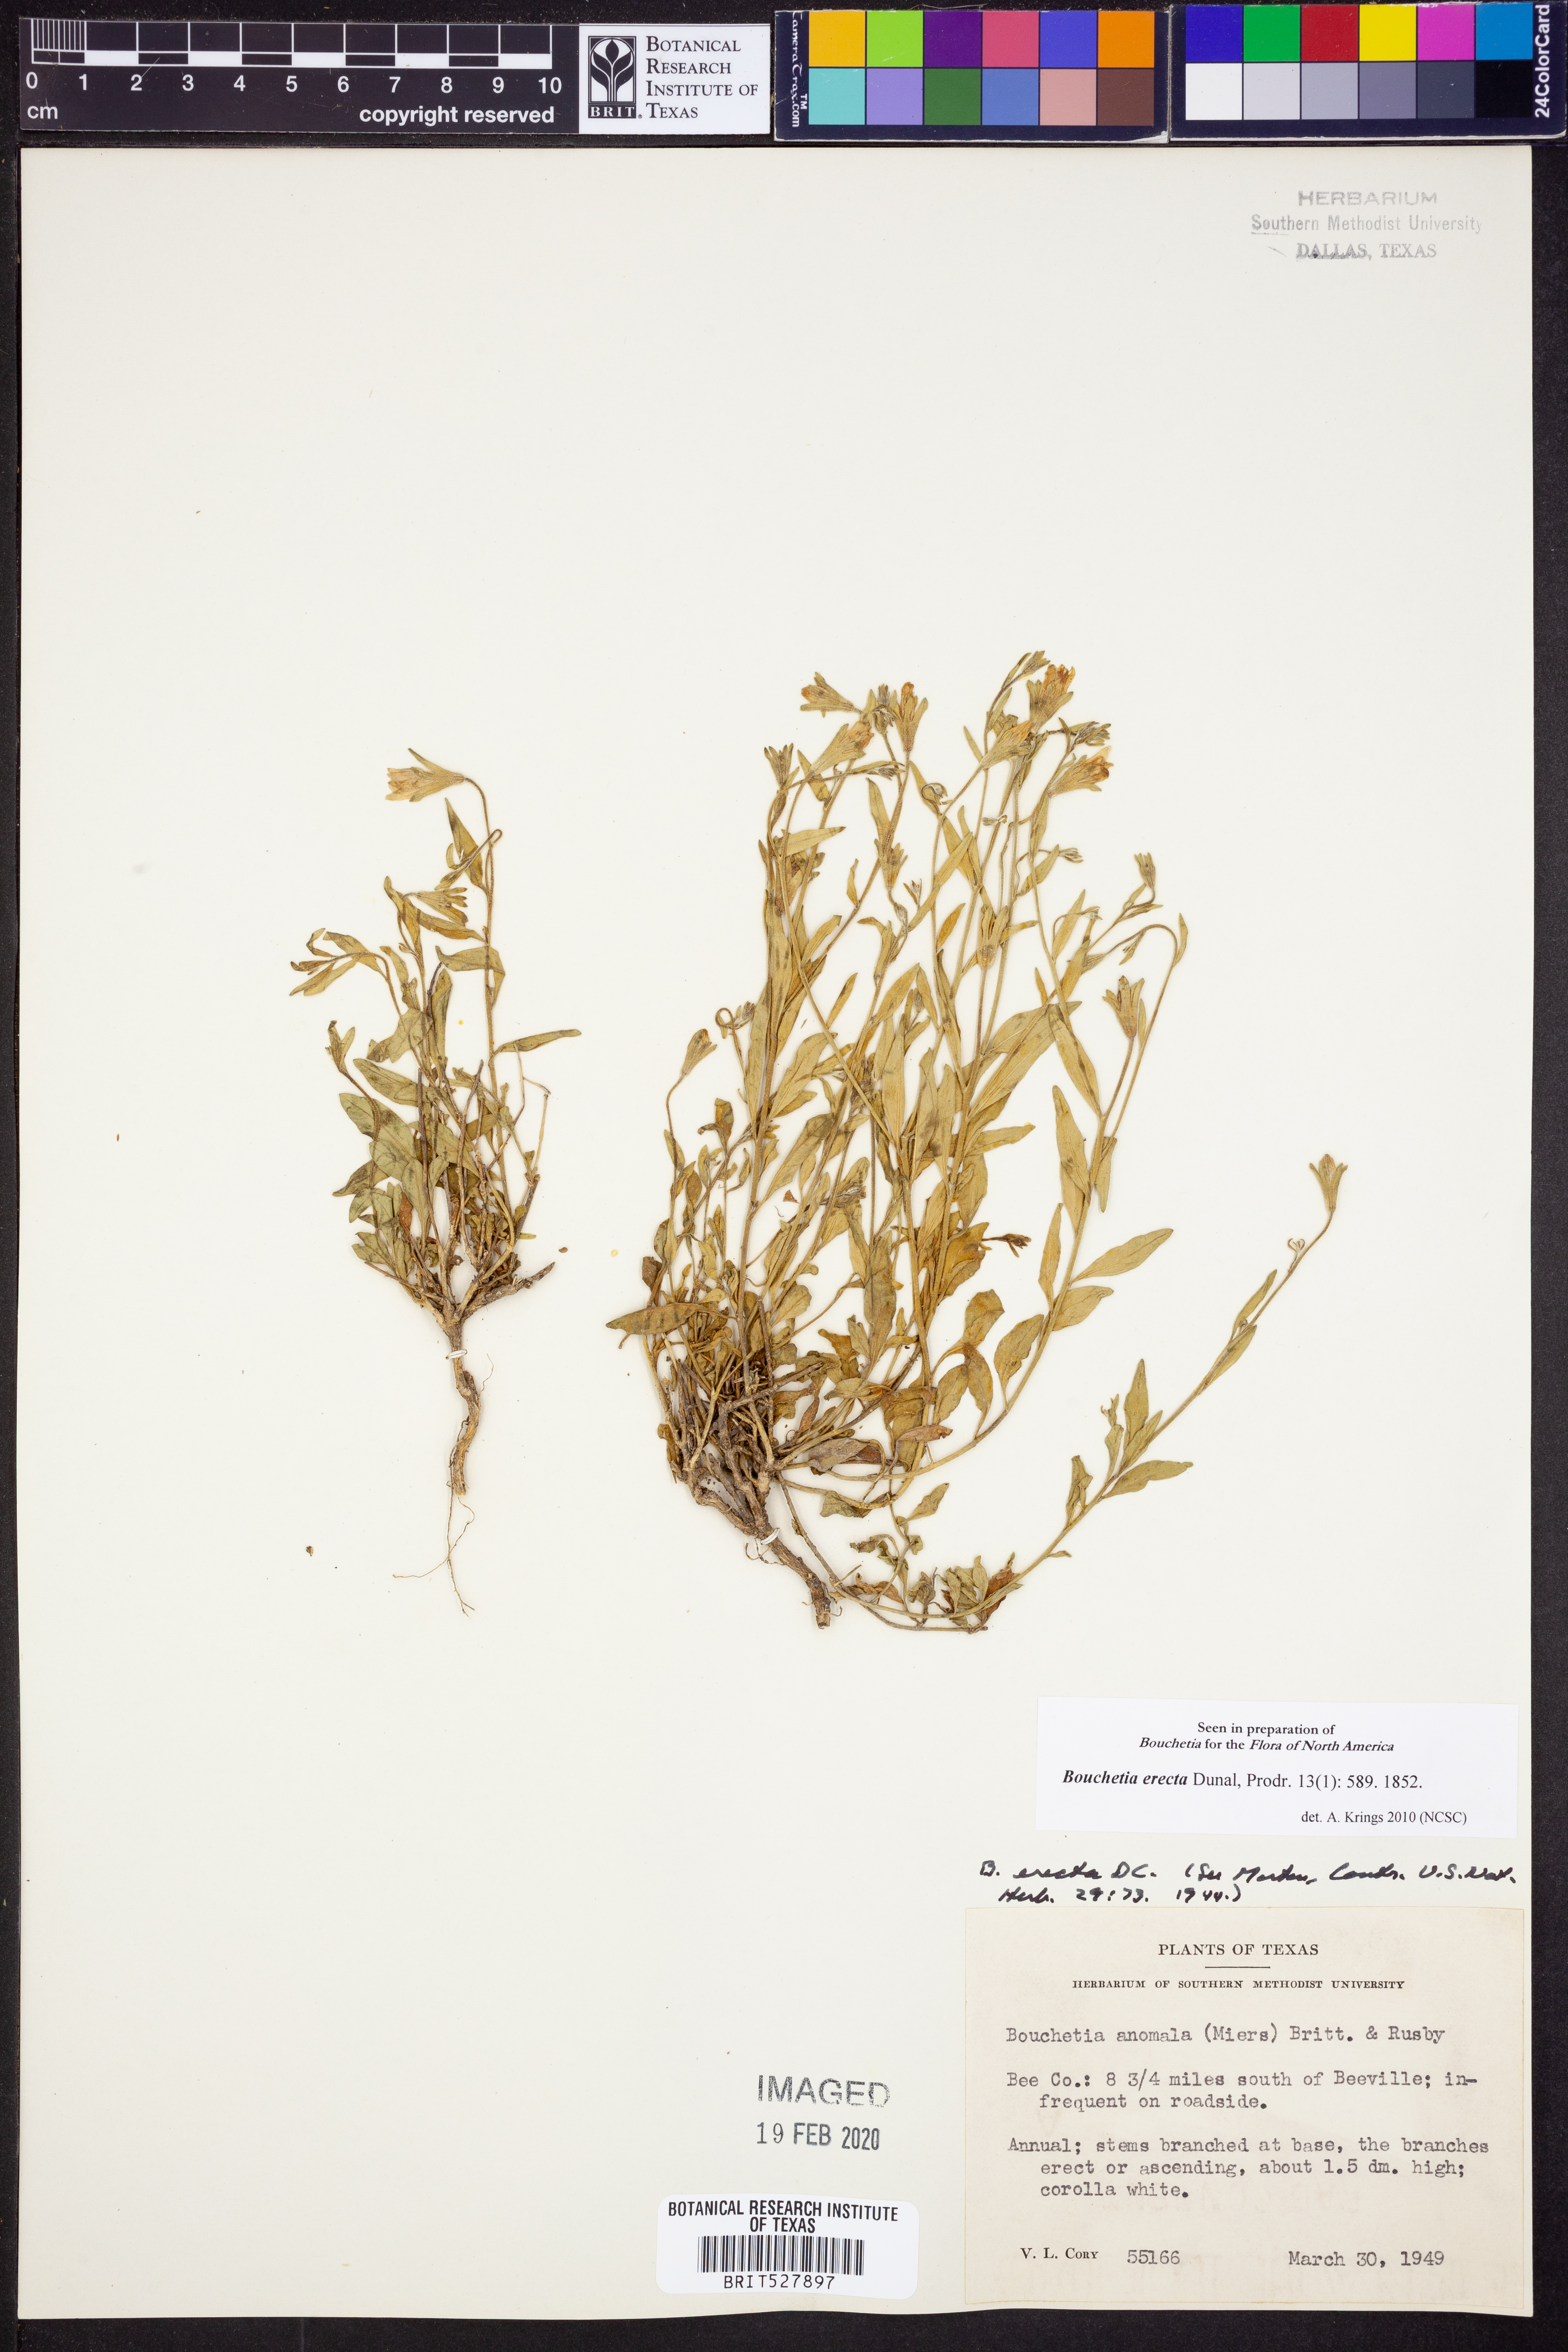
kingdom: Plantae
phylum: Tracheophyta
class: Magnoliopsida
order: Solanales
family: Solanaceae
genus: Salpiglossis
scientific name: Salpiglossis erecta
